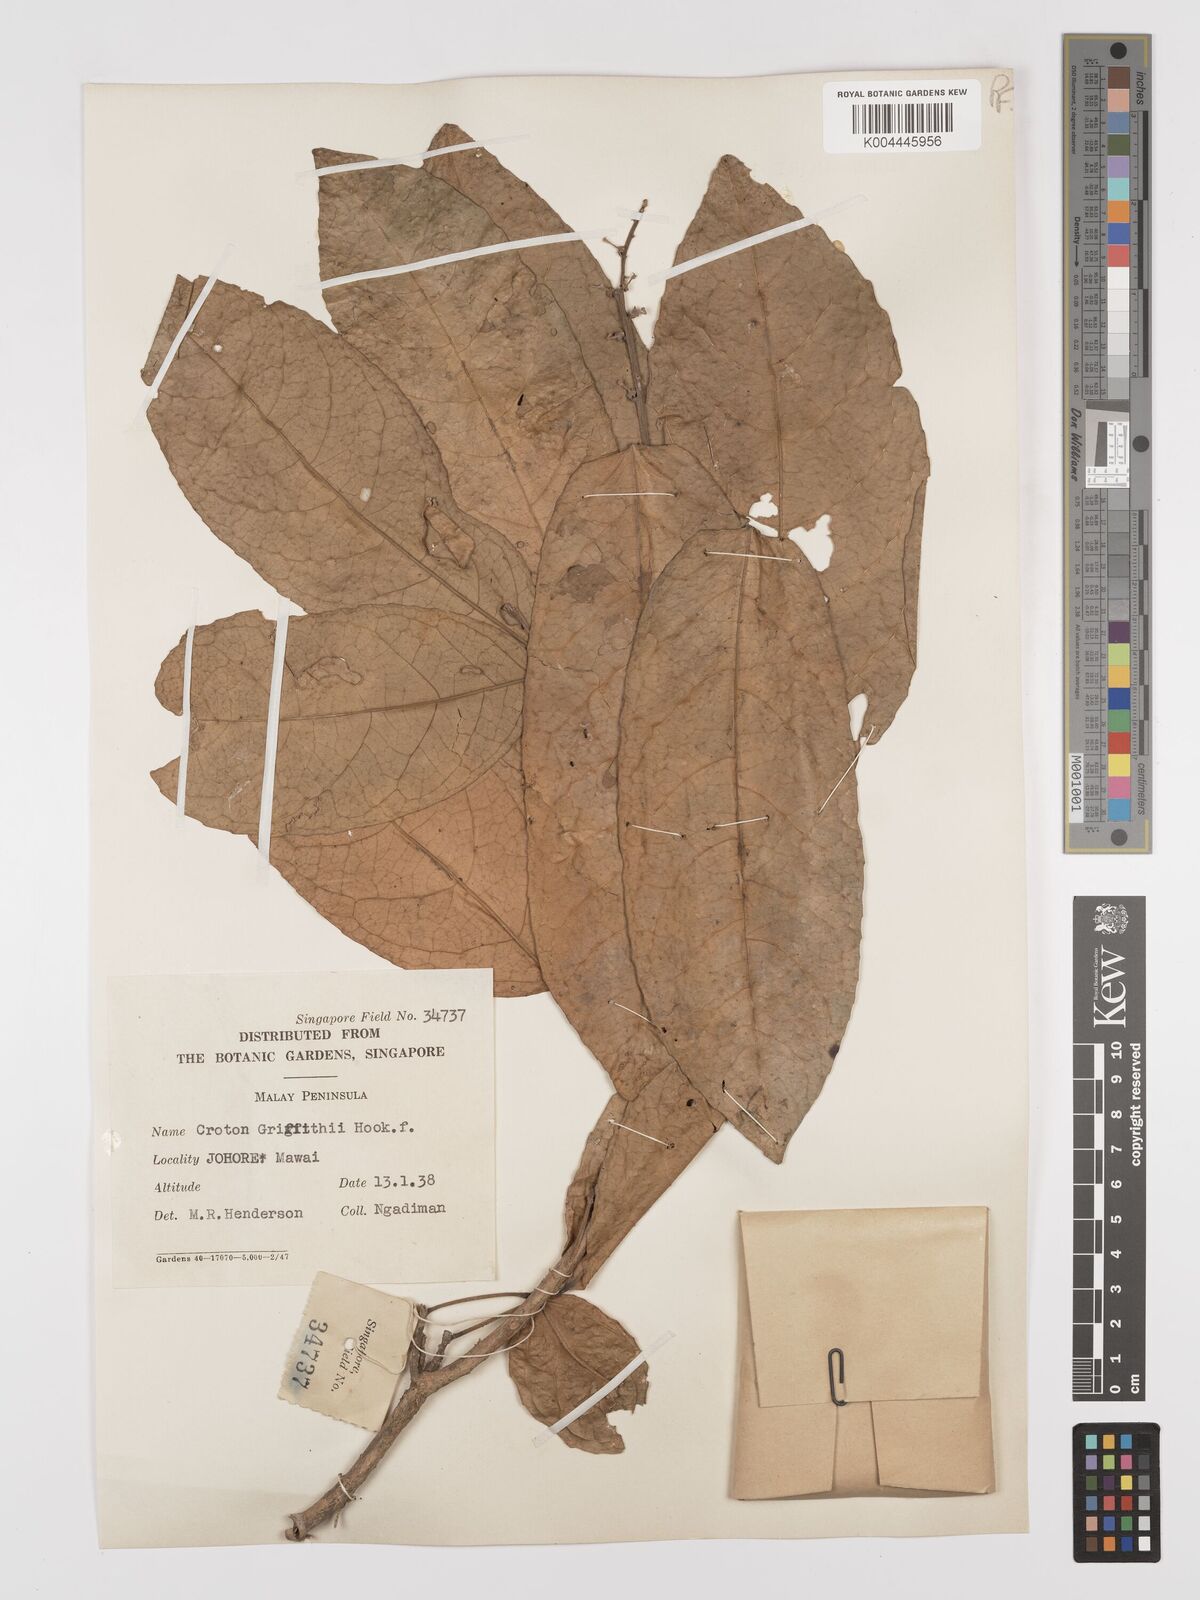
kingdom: Plantae
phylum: Tracheophyta
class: Magnoliopsida
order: Malpighiales
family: Euphorbiaceae
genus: Croton
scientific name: Croton griffithii
